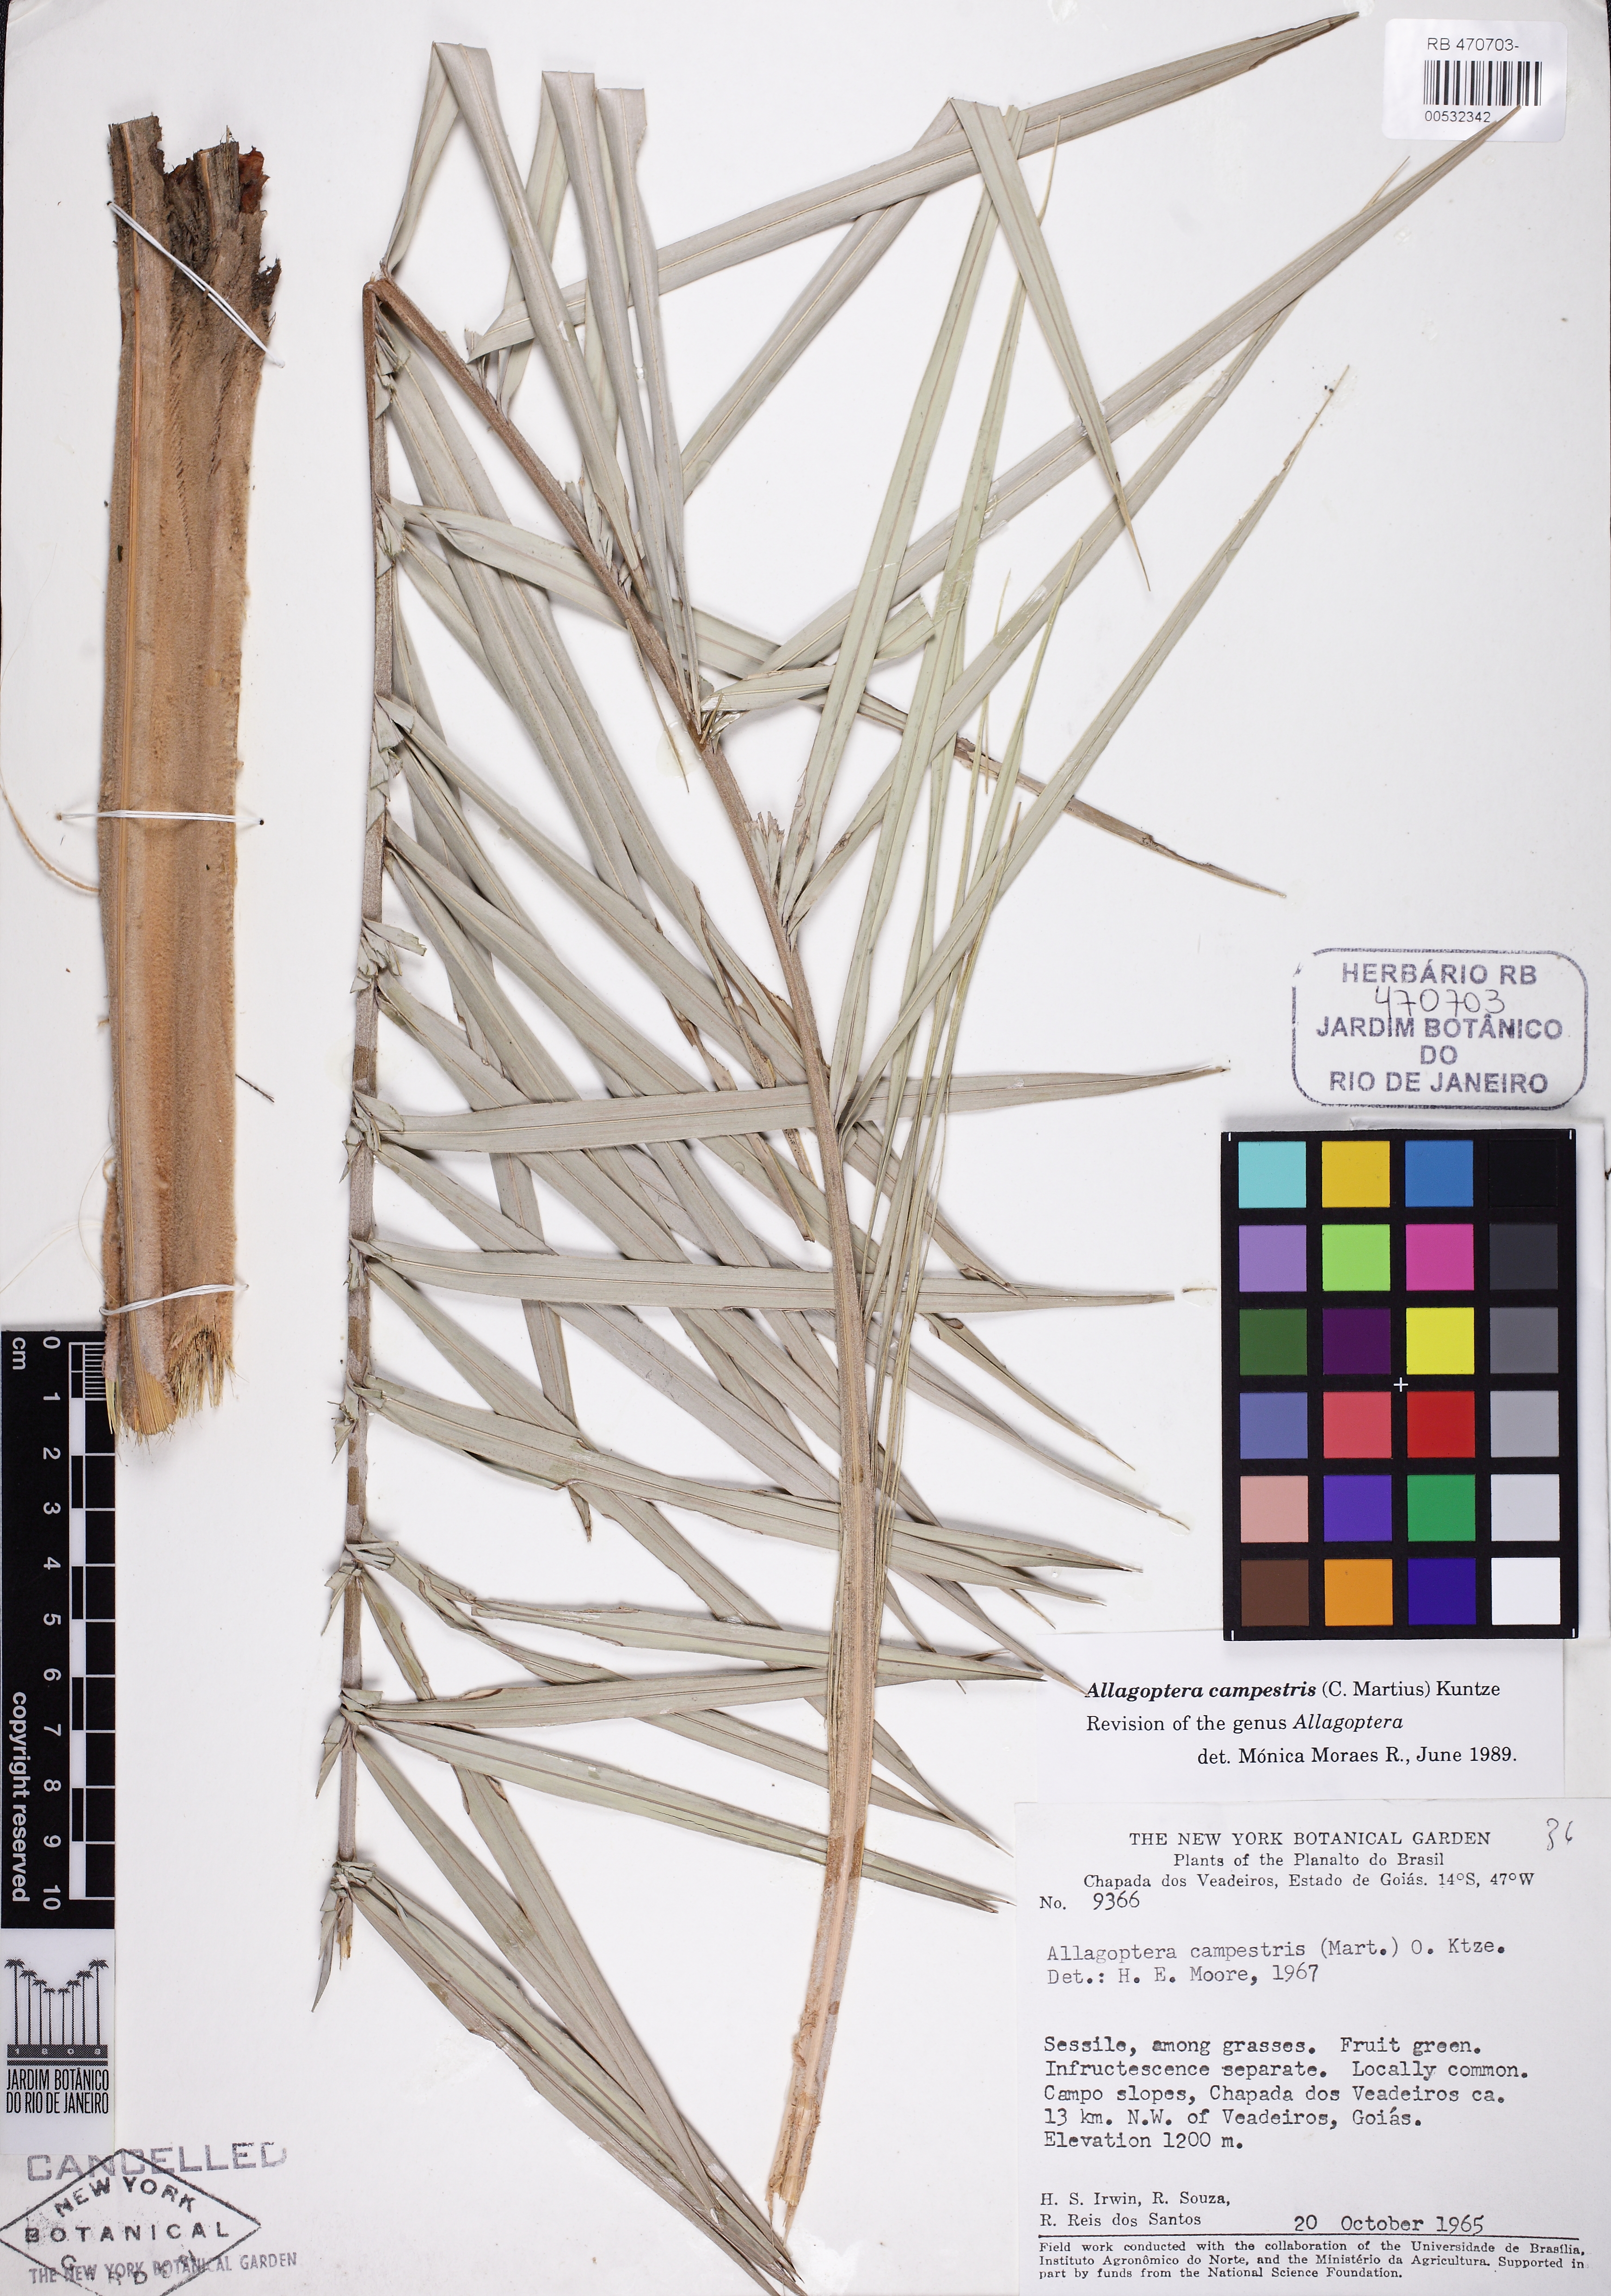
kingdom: Plantae
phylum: Tracheophyta
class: Liliopsida
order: Arecales
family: Arecaceae
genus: Allagoptera
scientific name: Allagoptera campestris
